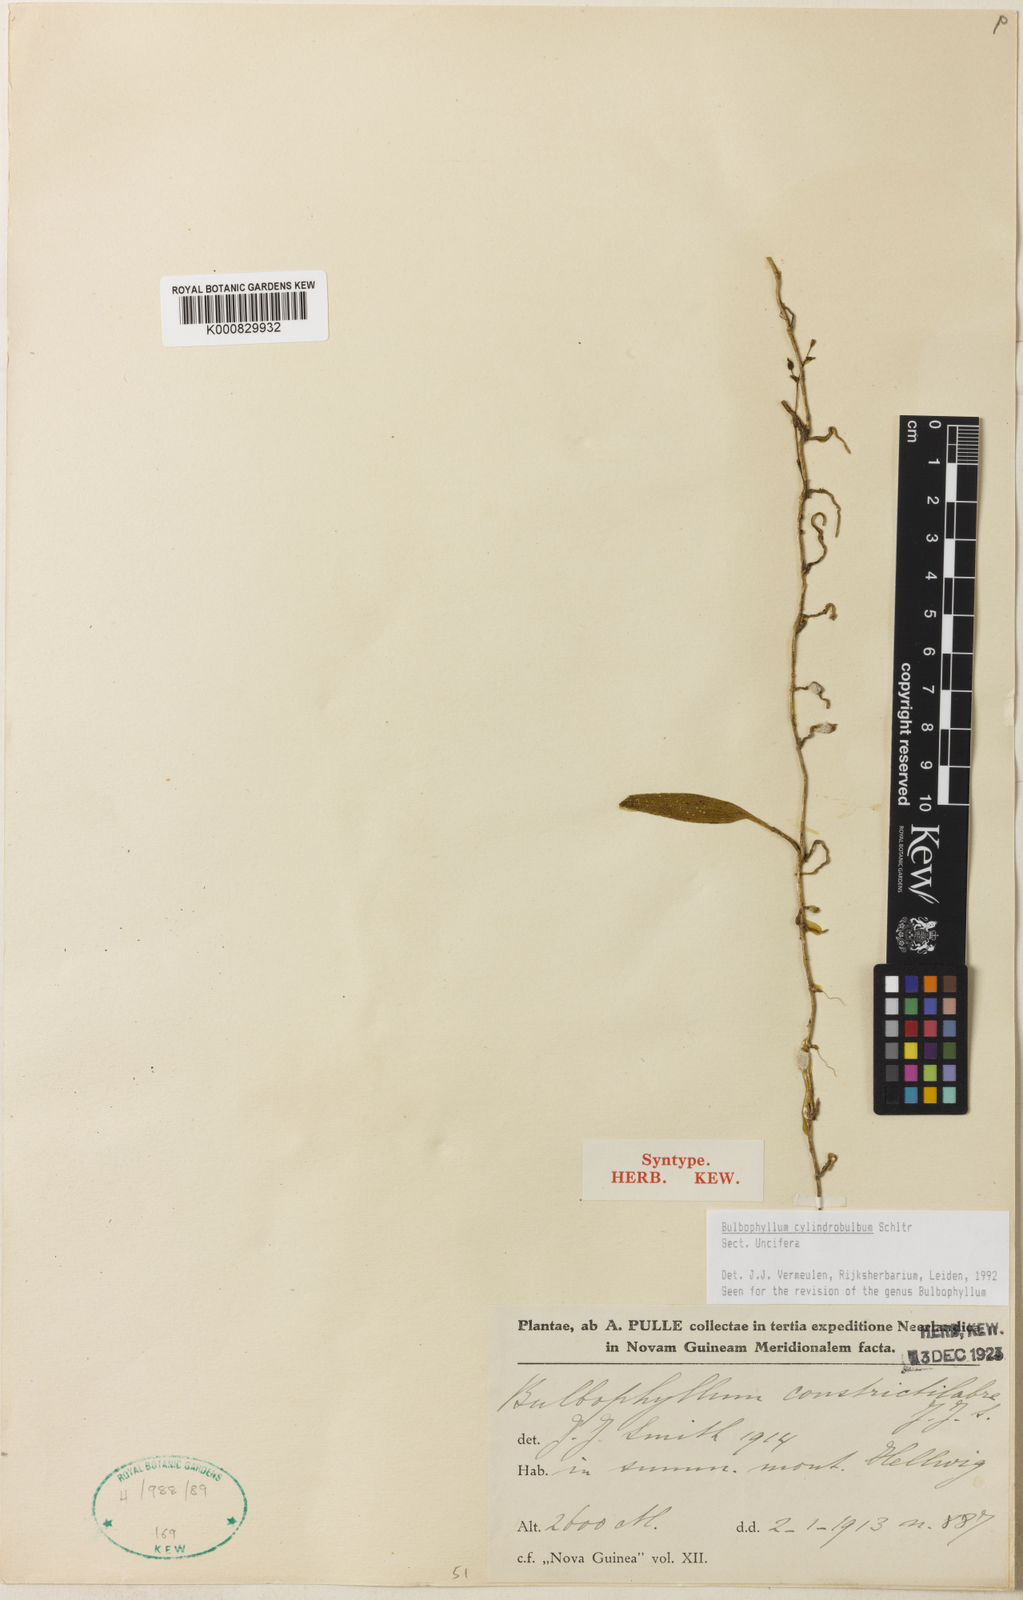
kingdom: Plantae
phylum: Tracheophyta
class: Liliopsida
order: Asparagales
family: Orchidaceae
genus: Bulbophyllum
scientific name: Bulbophyllum
